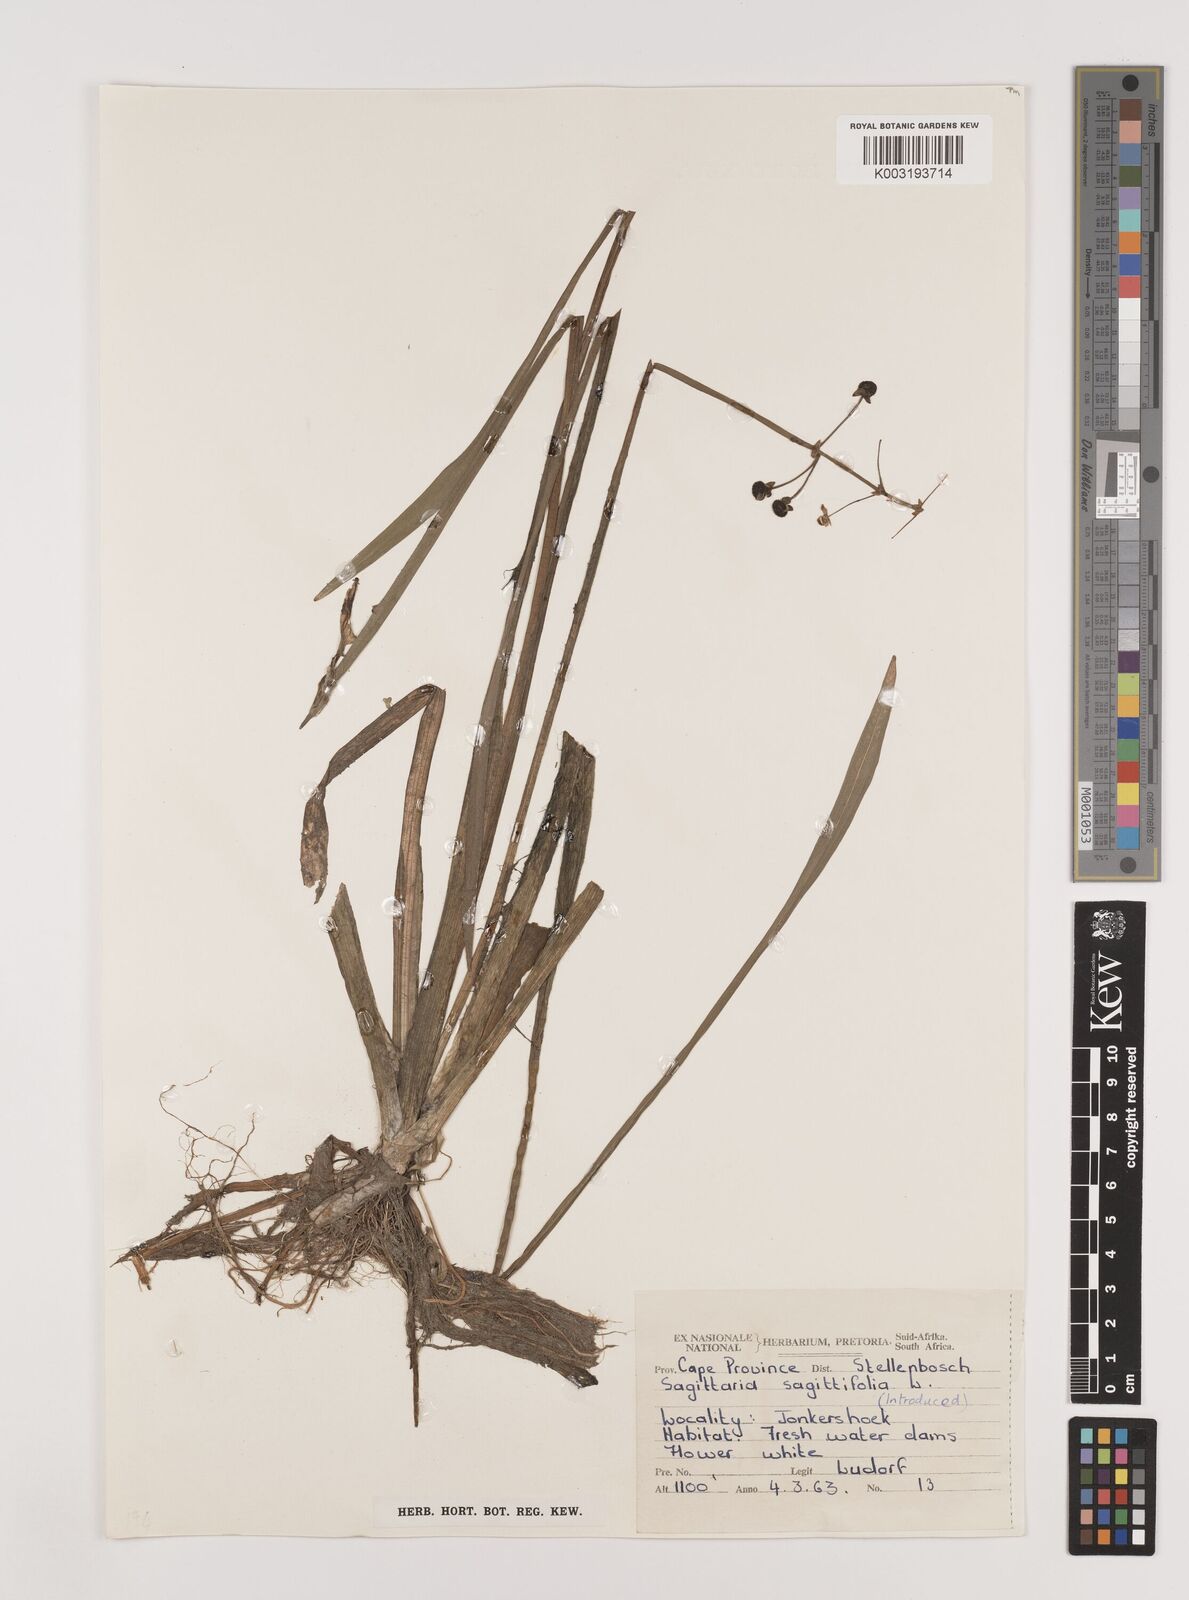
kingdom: Plantae
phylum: Tracheophyta
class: Liliopsida
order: Alismatales
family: Alismataceae
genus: Sagittaria
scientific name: Sagittaria sagittifolia
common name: Arrowhead
